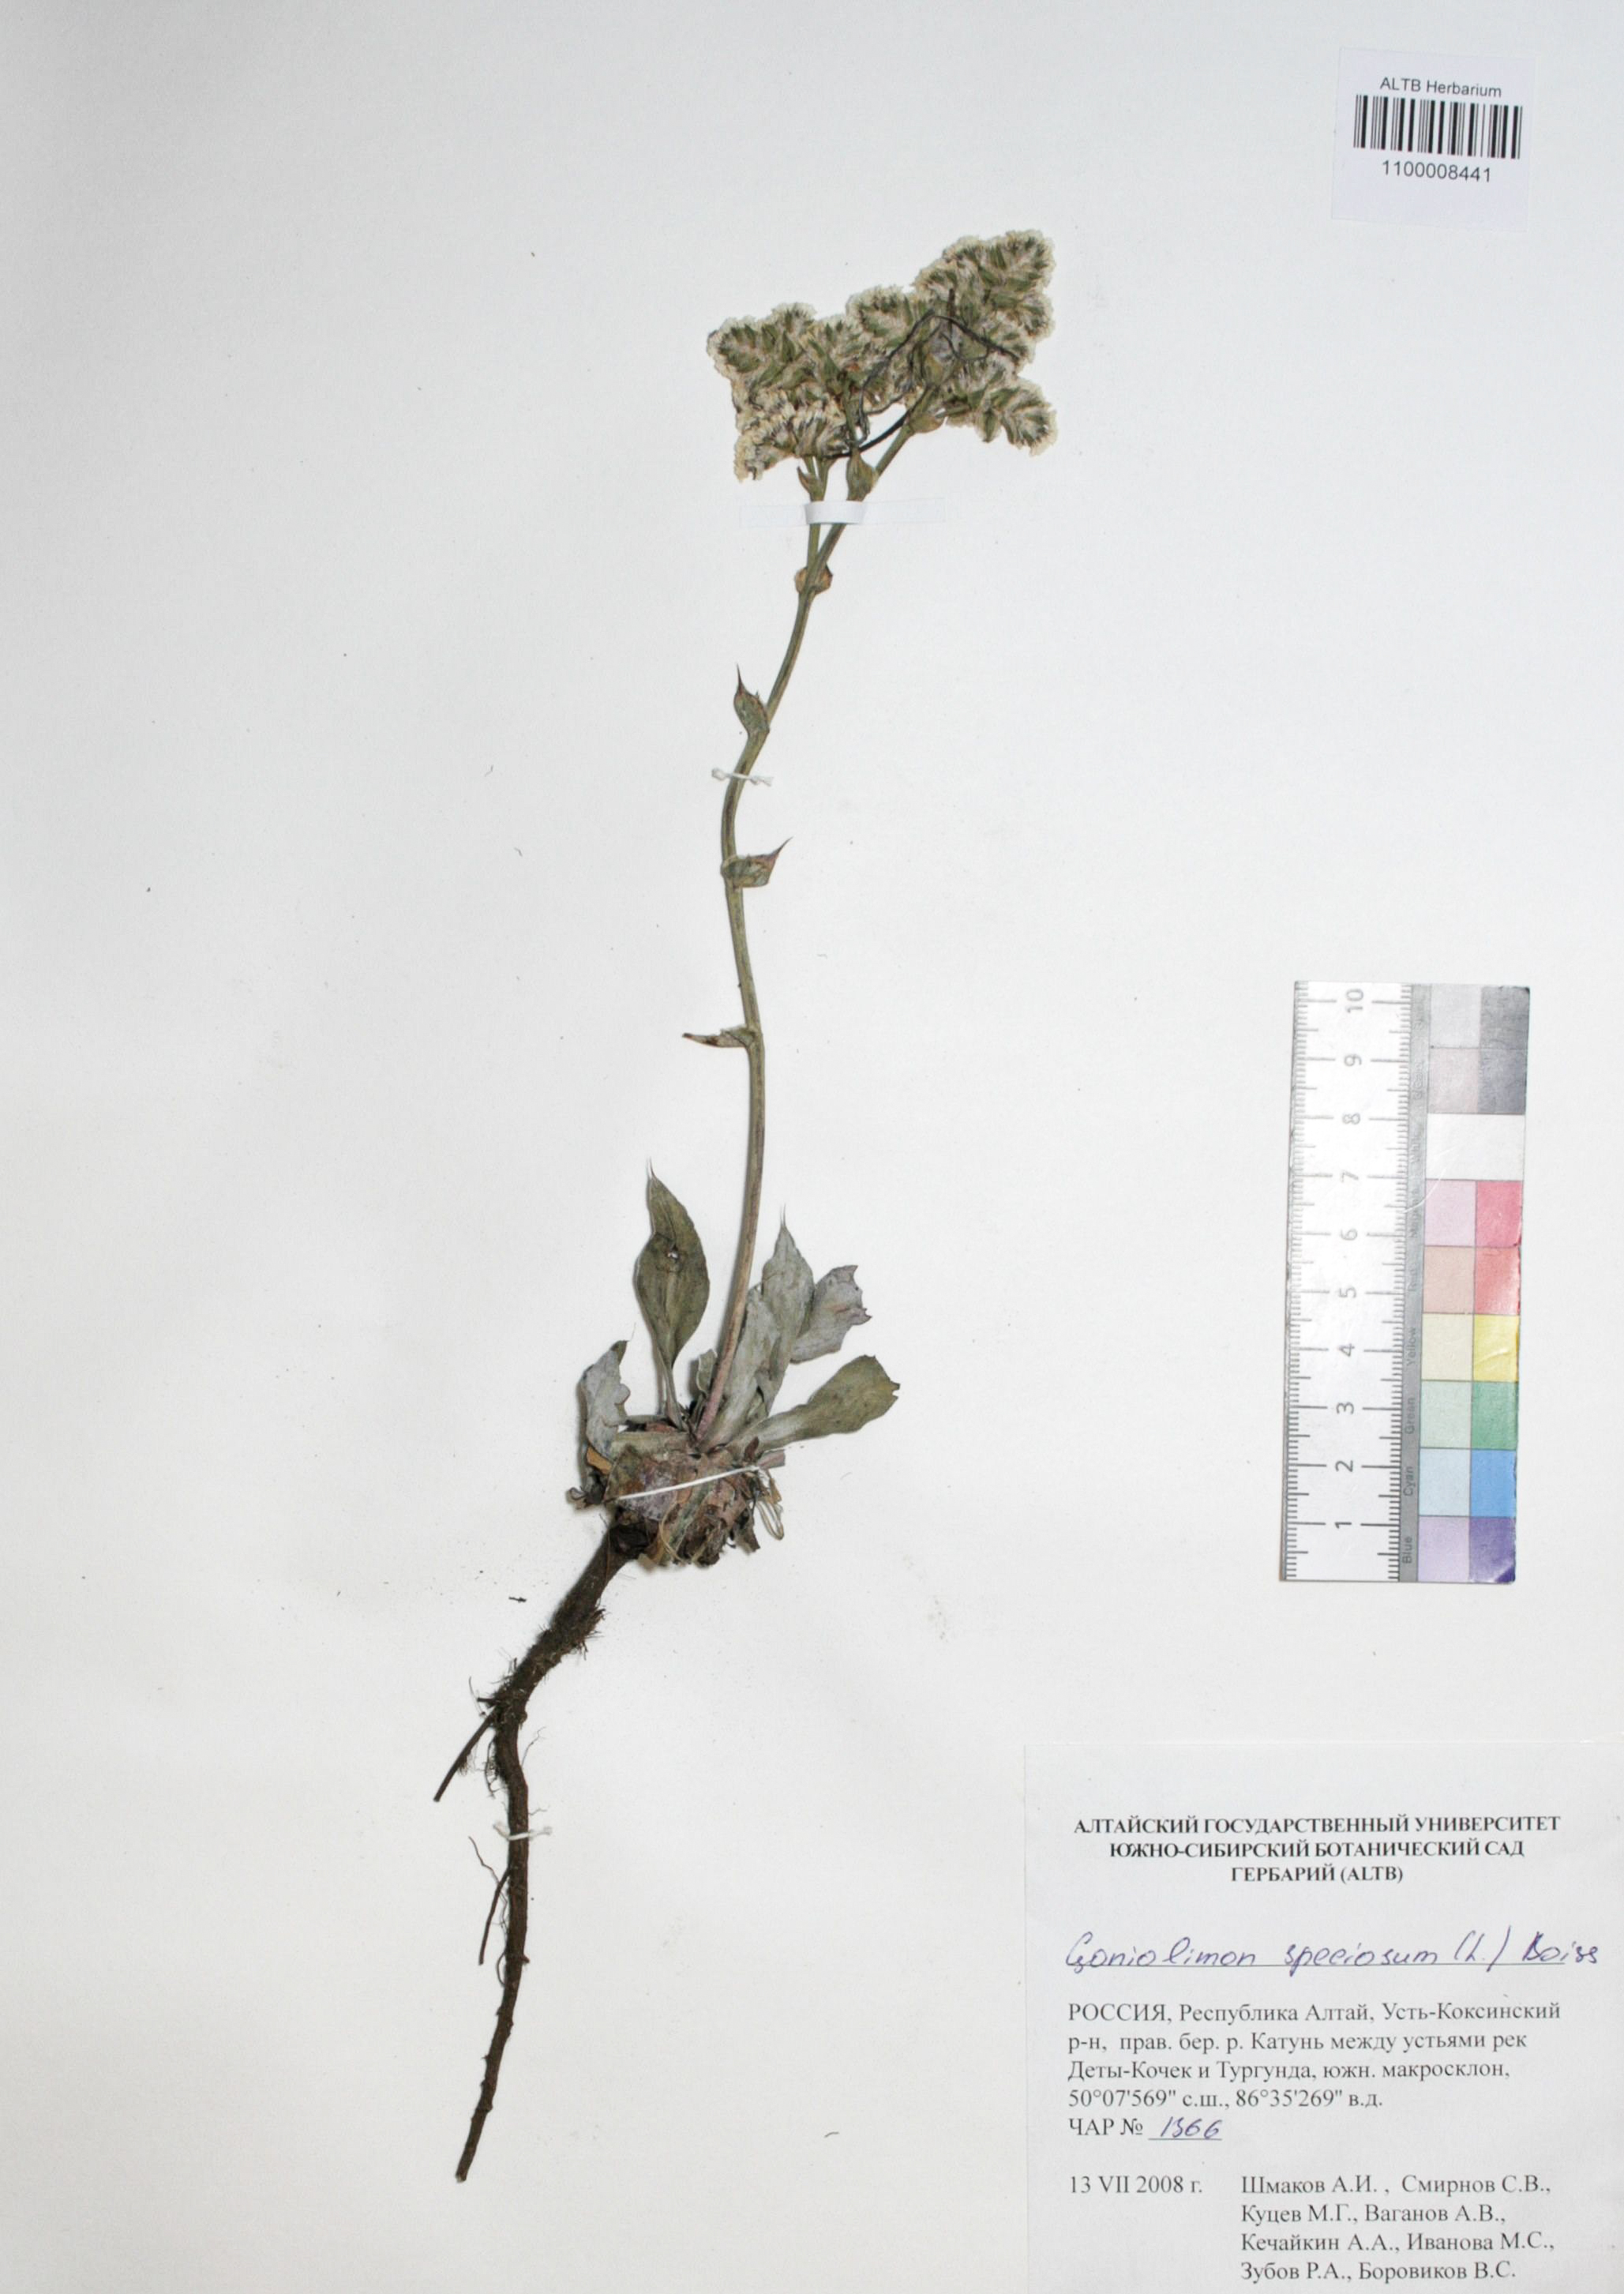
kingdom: Plantae
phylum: Tracheophyta
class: Magnoliopsida
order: Caryophyllales
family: Plumbaginaceae
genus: Goniolimon
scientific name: Goniolimon speciosum
